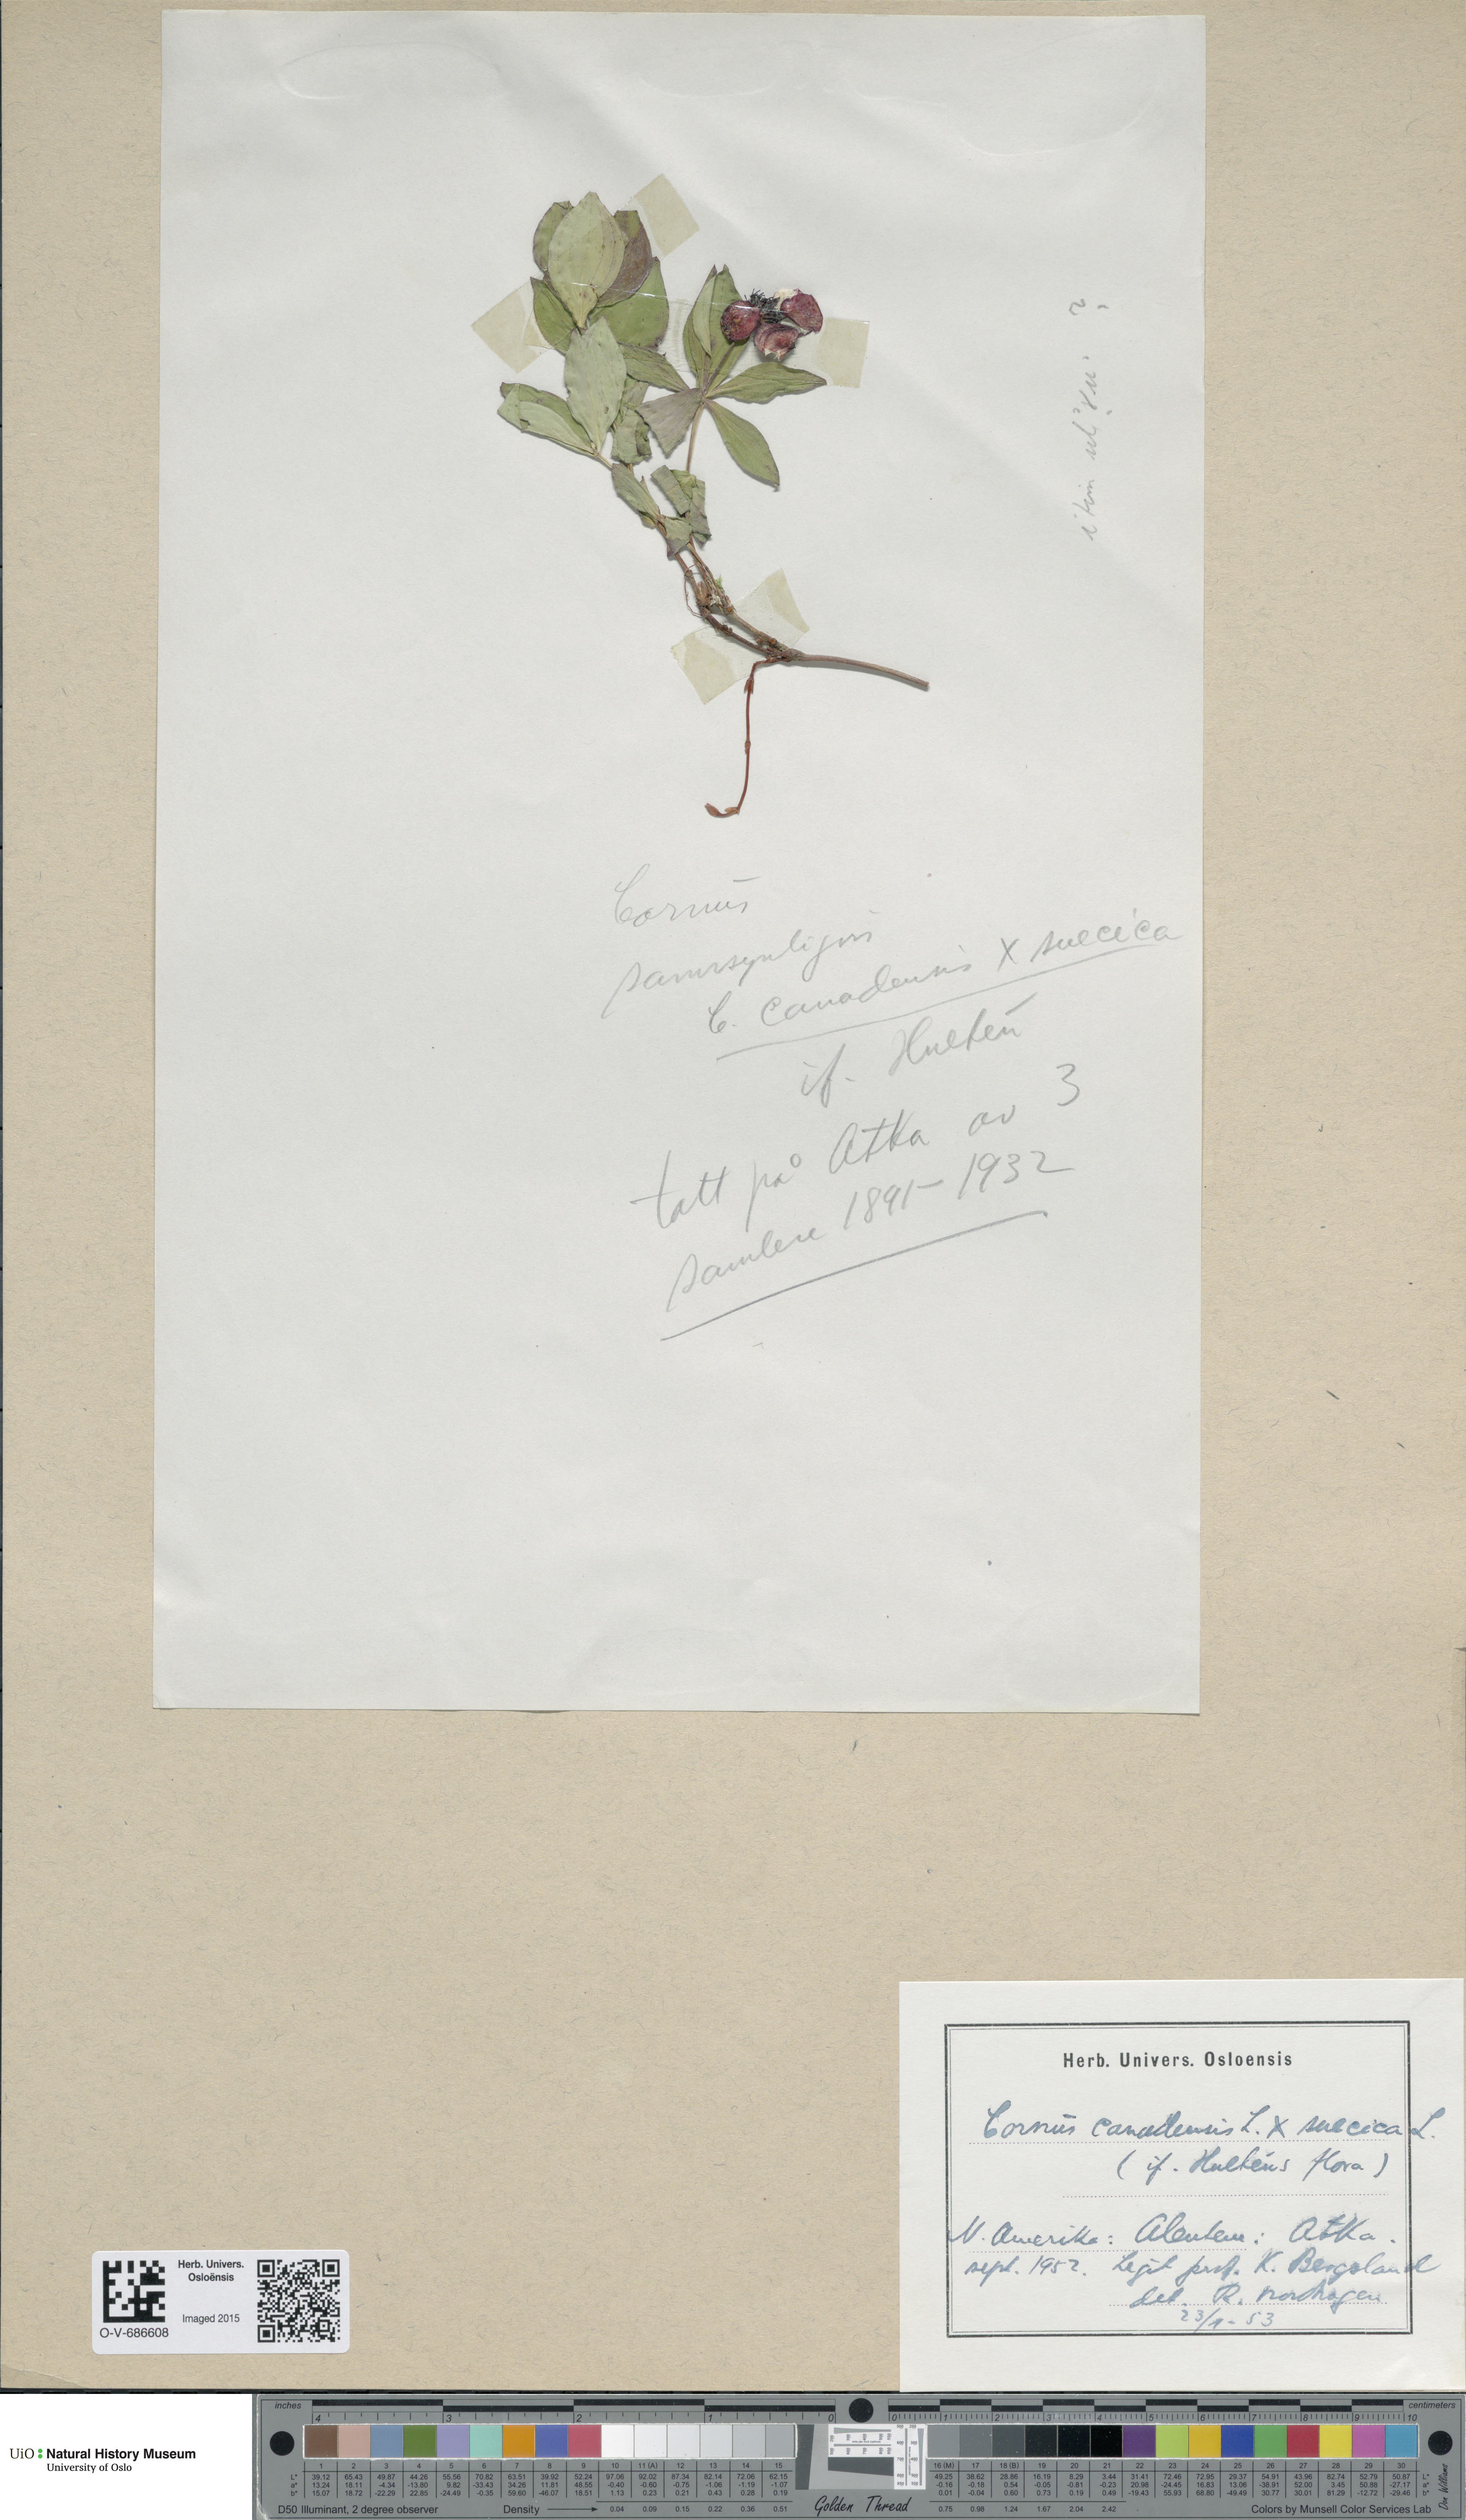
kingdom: Plantae
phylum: Tracheophyta
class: Magnoliopsida
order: Cornales
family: Cornaceae
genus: Cornus
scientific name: Cornus
